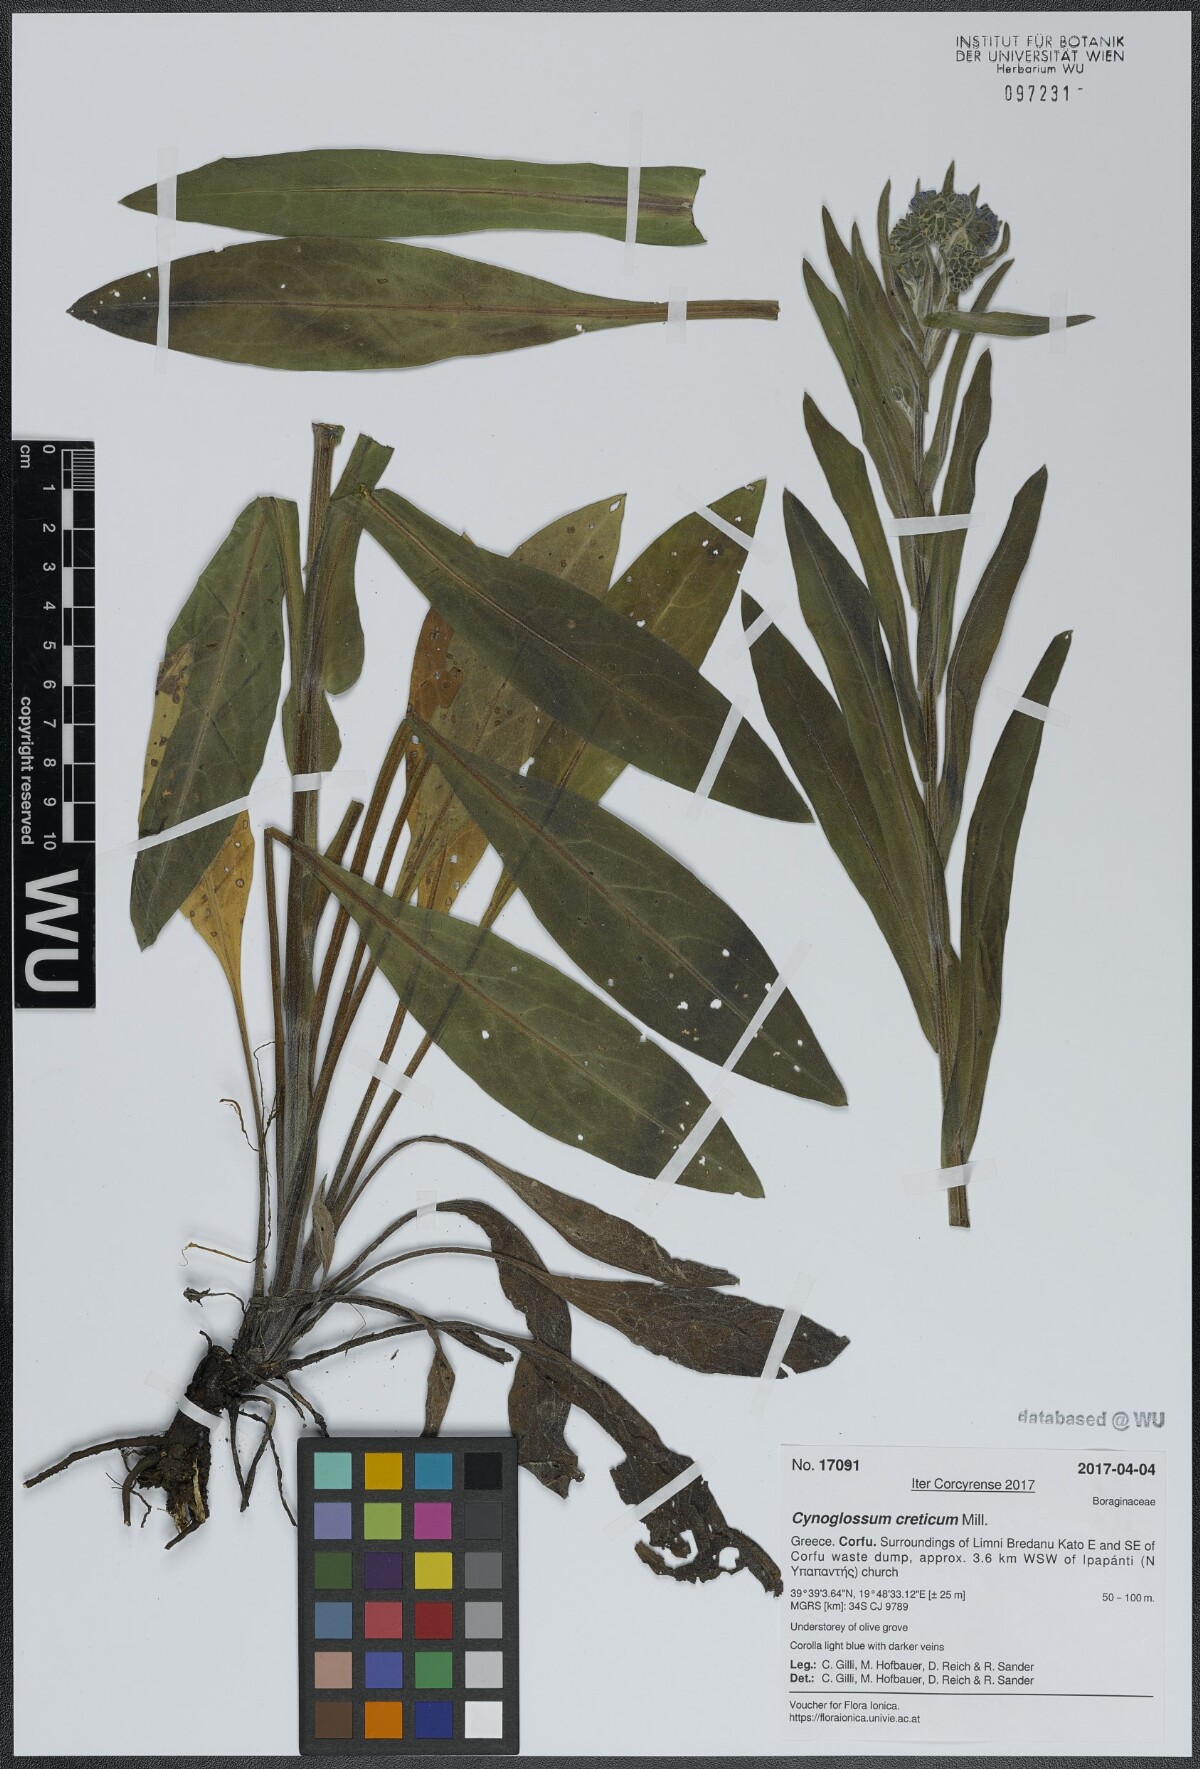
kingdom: Plantae
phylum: Tracheophyta
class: Magnoliopsida
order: Boraginales
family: Boraginaceae
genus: Cynoglossum
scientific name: Cynoglossum creticum
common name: Blue hound's tongue
